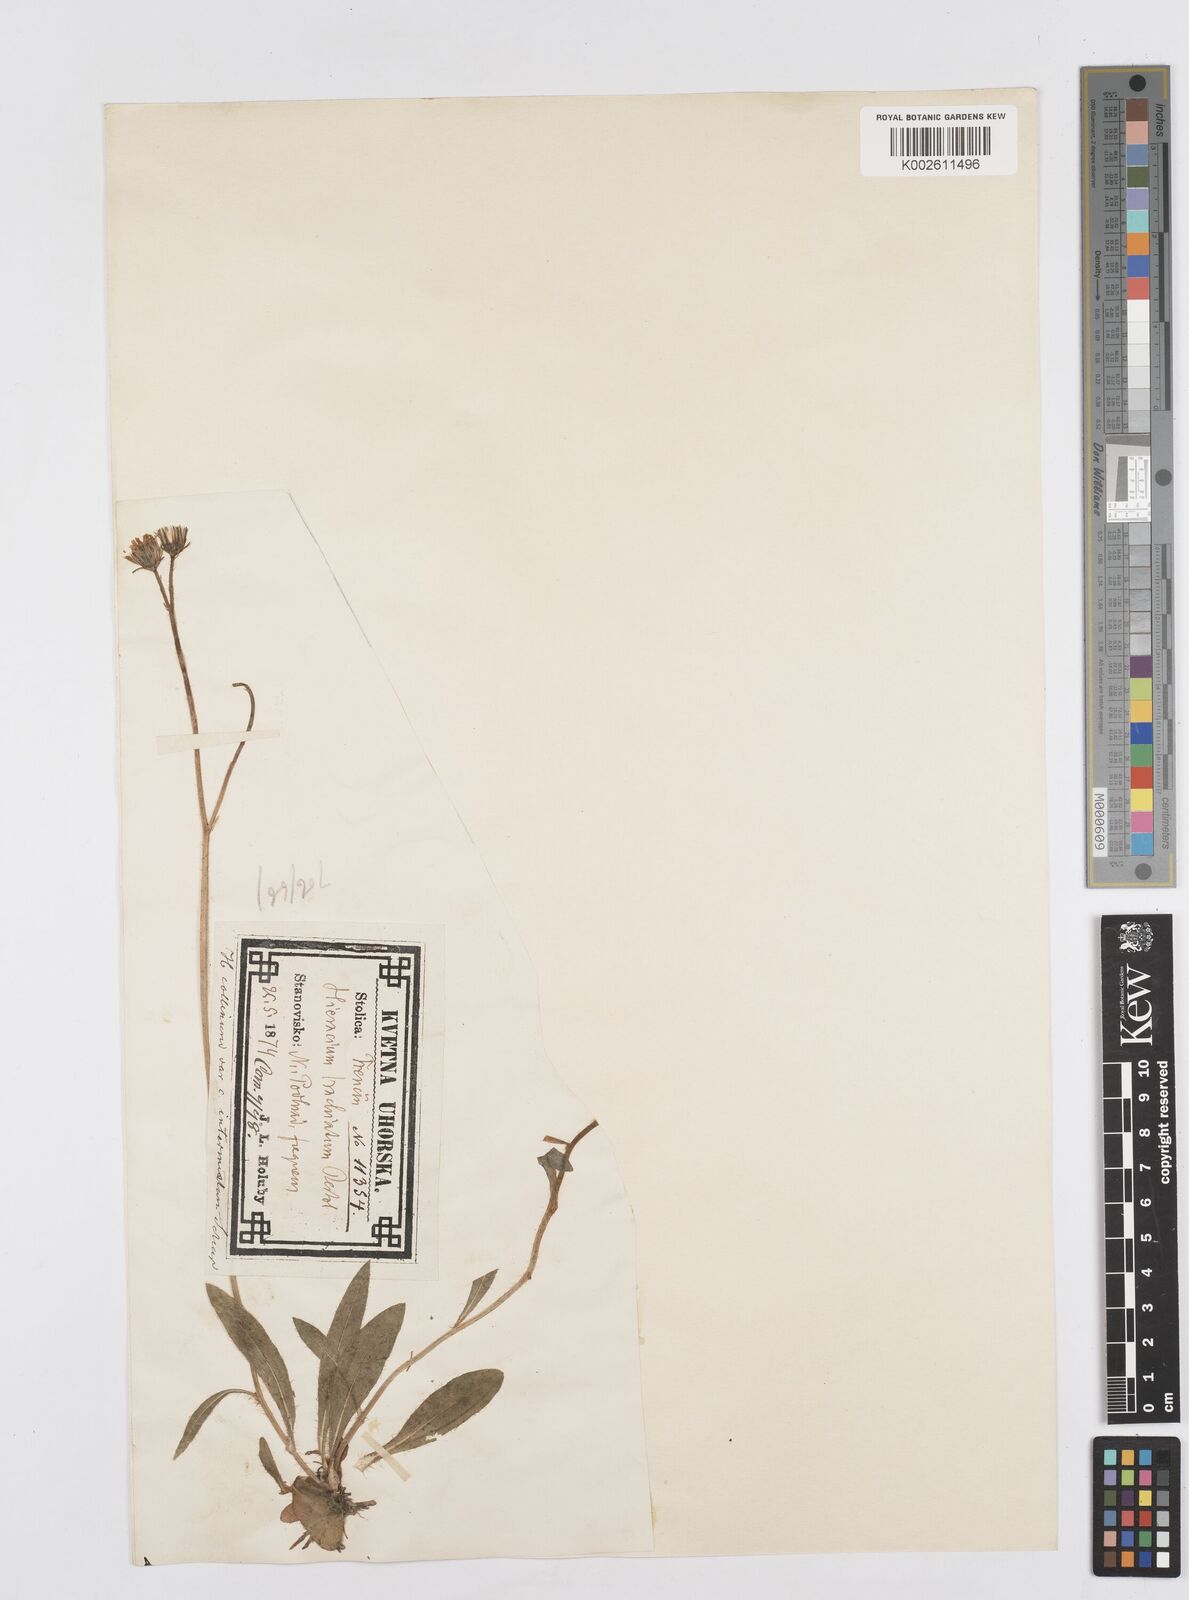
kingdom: Plantae
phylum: Tracheophyta
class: Magnoliopsida
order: Asterales
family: Asteraceae
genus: Pilosella
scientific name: Pilosella acutifolia
